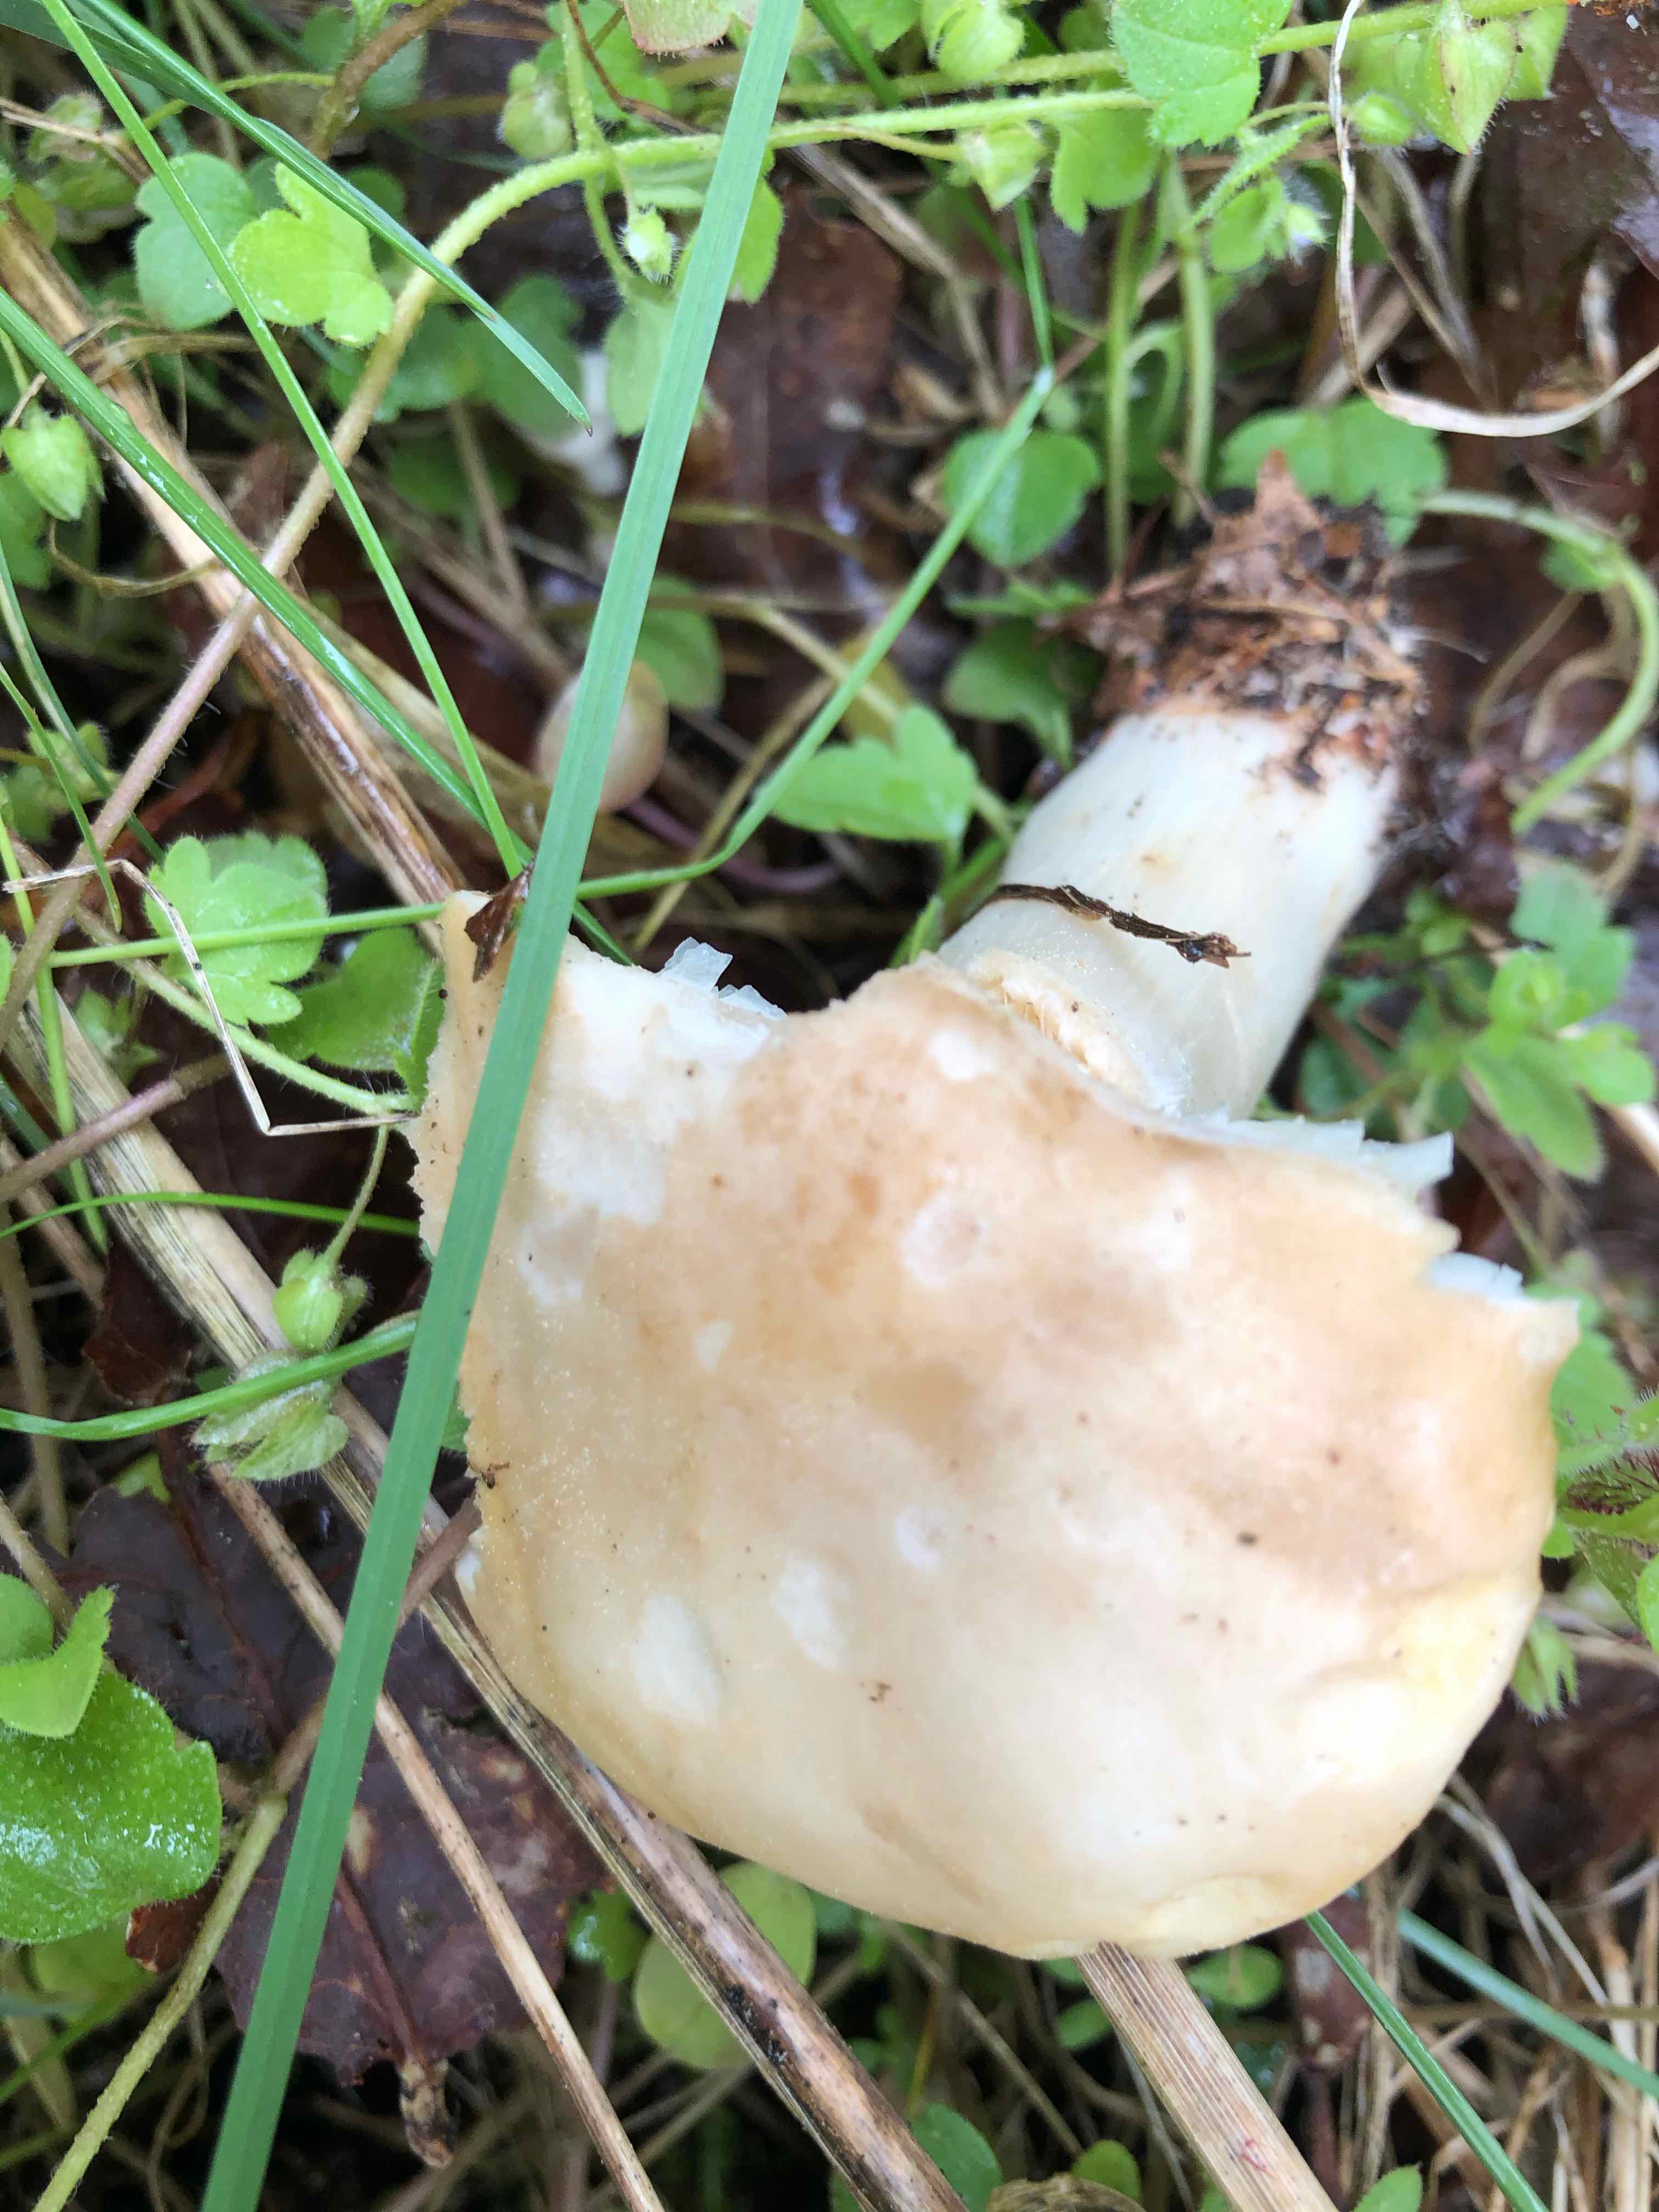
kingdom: Fungi
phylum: Basidiomycota
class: Agaricomycetes
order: Agaricales
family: Lyophyllaceae
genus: Calocybe
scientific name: Calocybe gambosa
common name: vårmusseron
